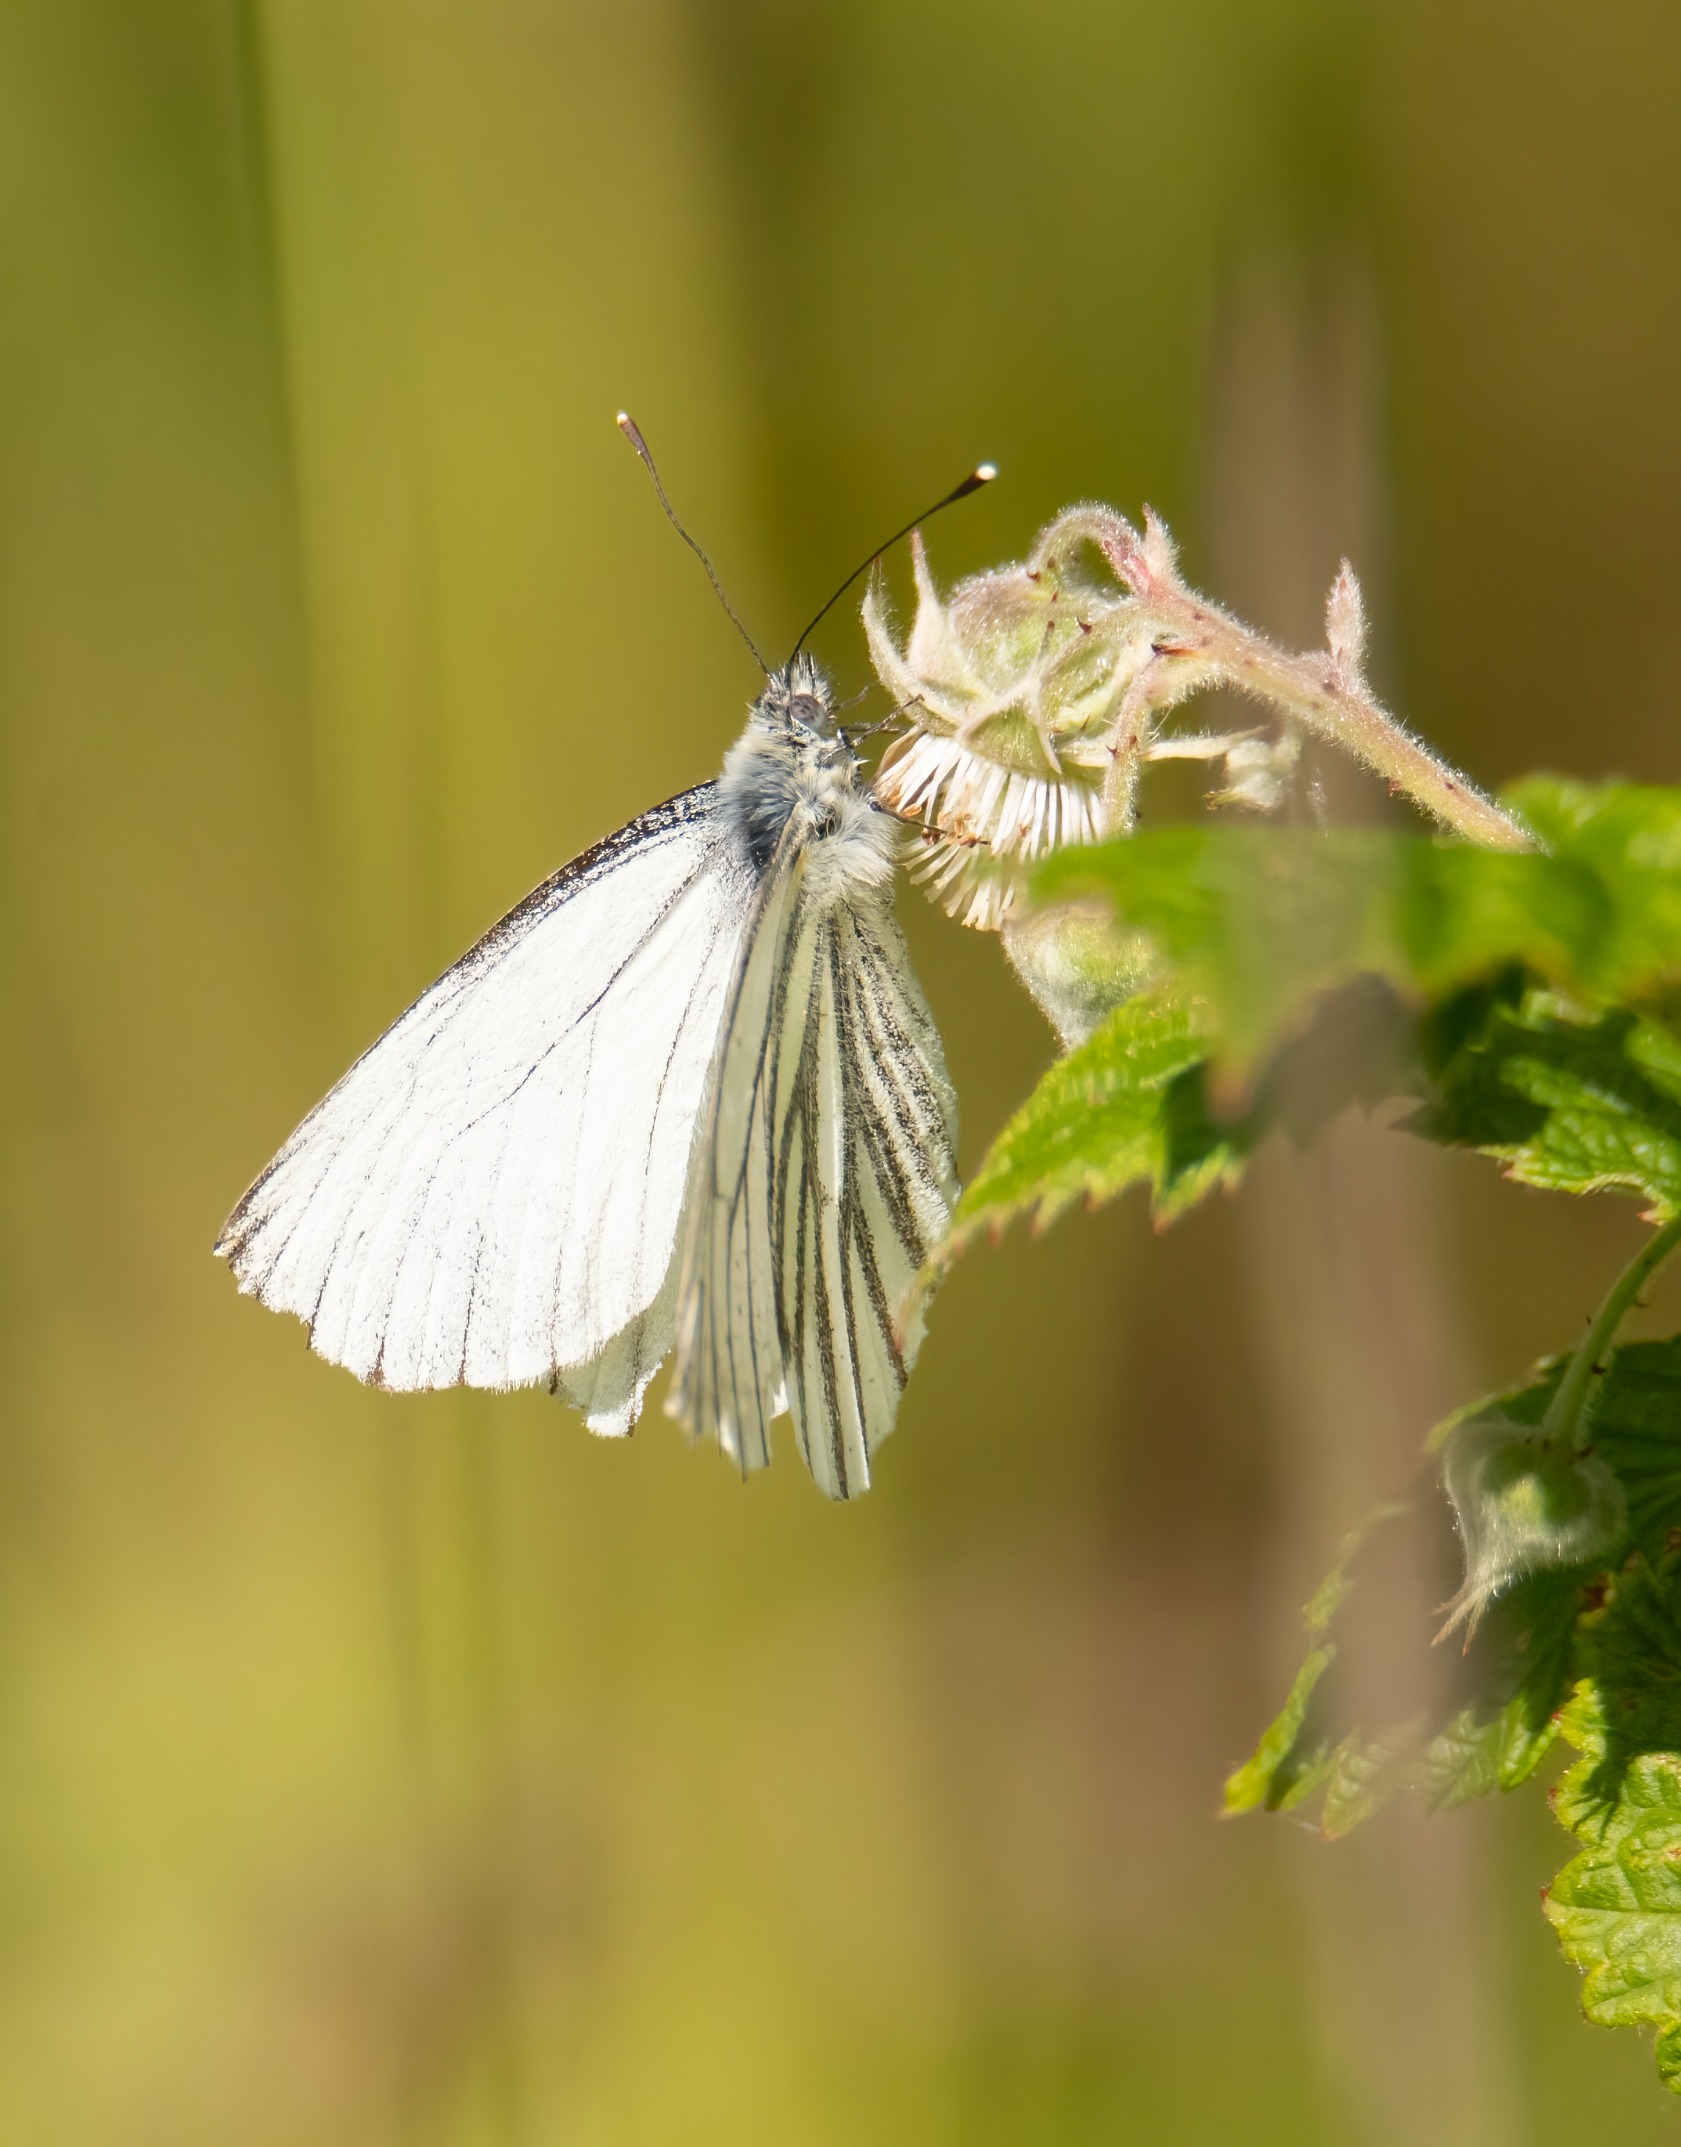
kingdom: Animalia
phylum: Arthropoda
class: Insecta
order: Lepidoptera
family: Pieridae
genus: Pieris
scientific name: Pieris napi
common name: Grønåret kålsommerfugl
